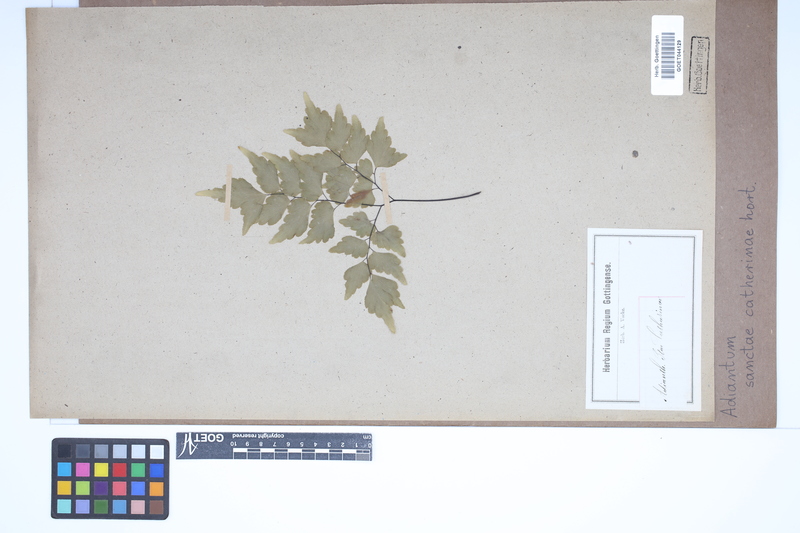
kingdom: Plantae
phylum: Tracheophyta
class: Polypodiopsida
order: Polypodiales
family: Pteridaceae
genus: Adiantum
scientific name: Adiantum
